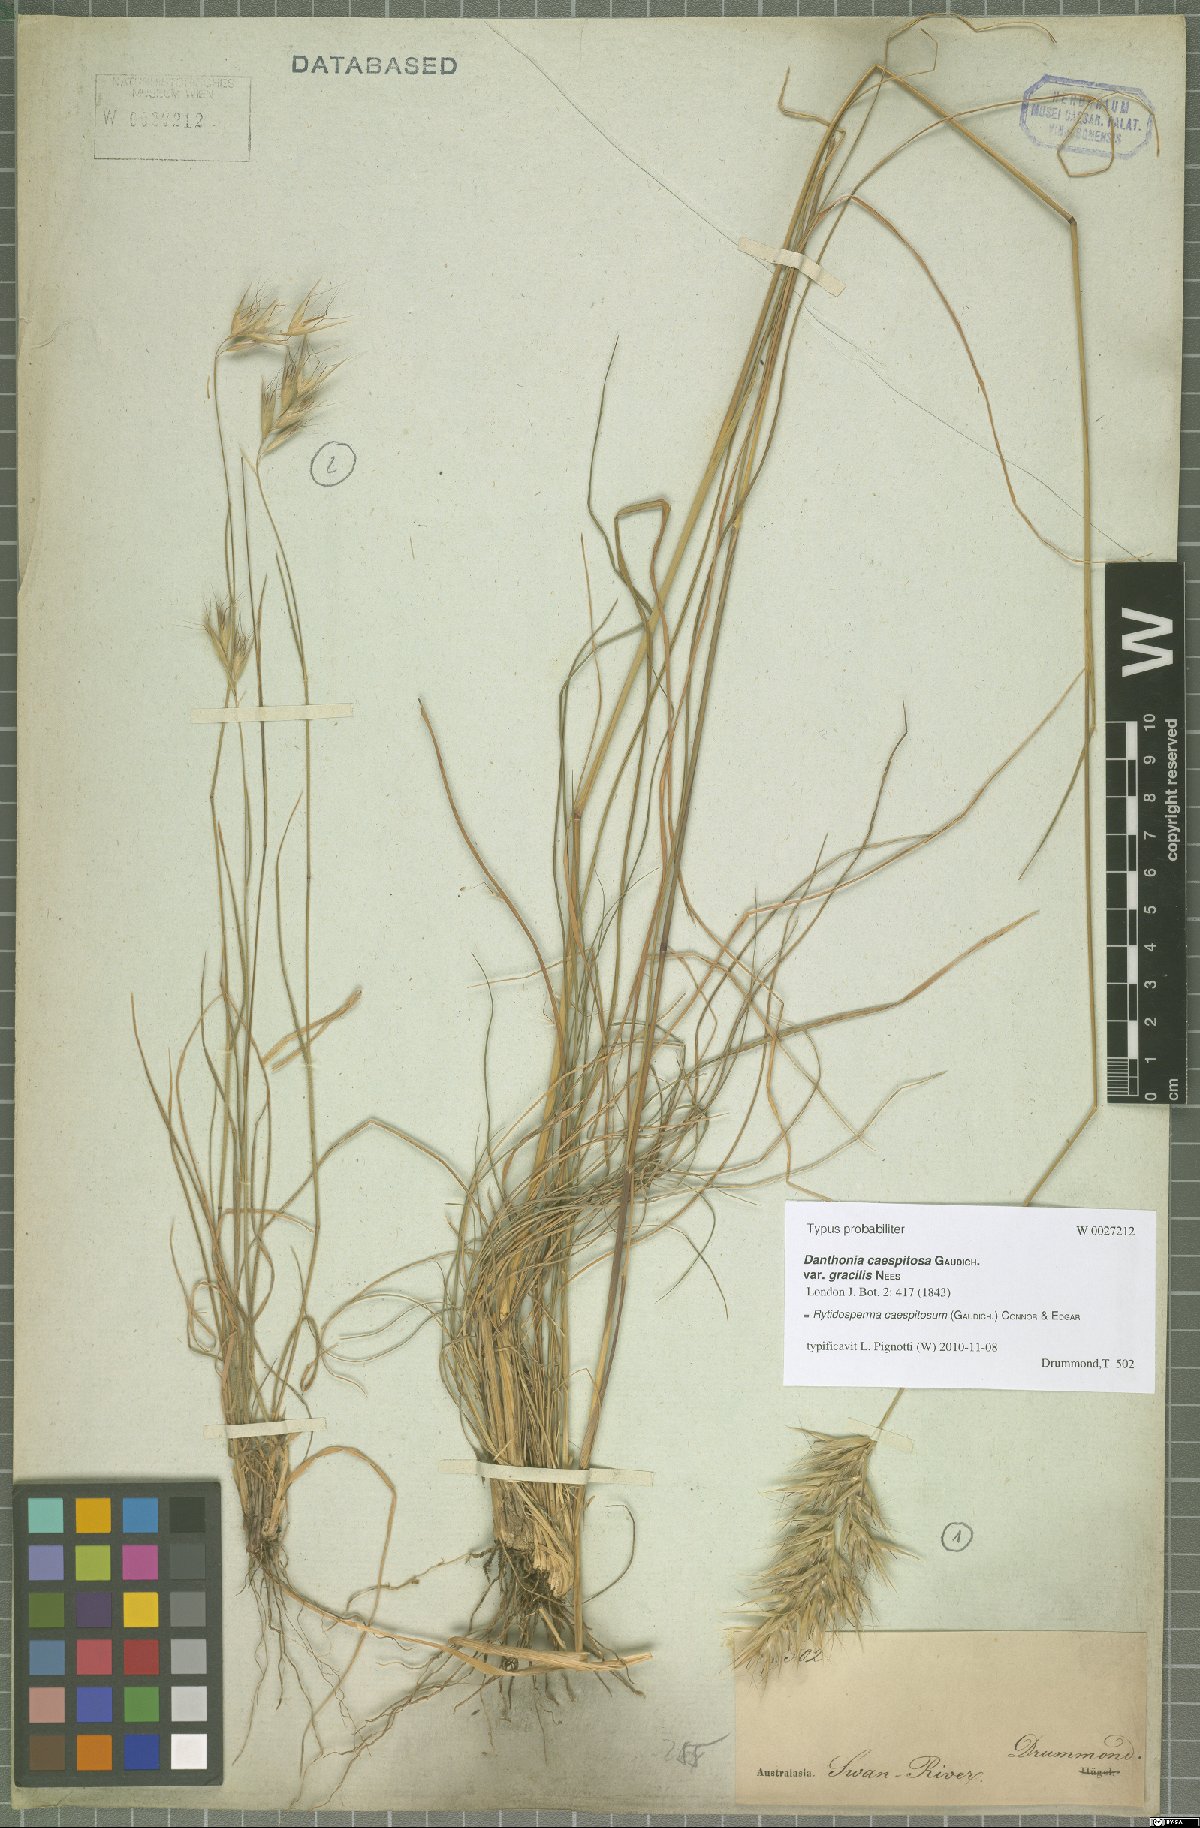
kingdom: Plantae
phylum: Tracheophyta
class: Liliopsida
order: Poales
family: Poaceae
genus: Rytidosperma
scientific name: Rytidosperma caespitosum
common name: Tufted wallaby grass
